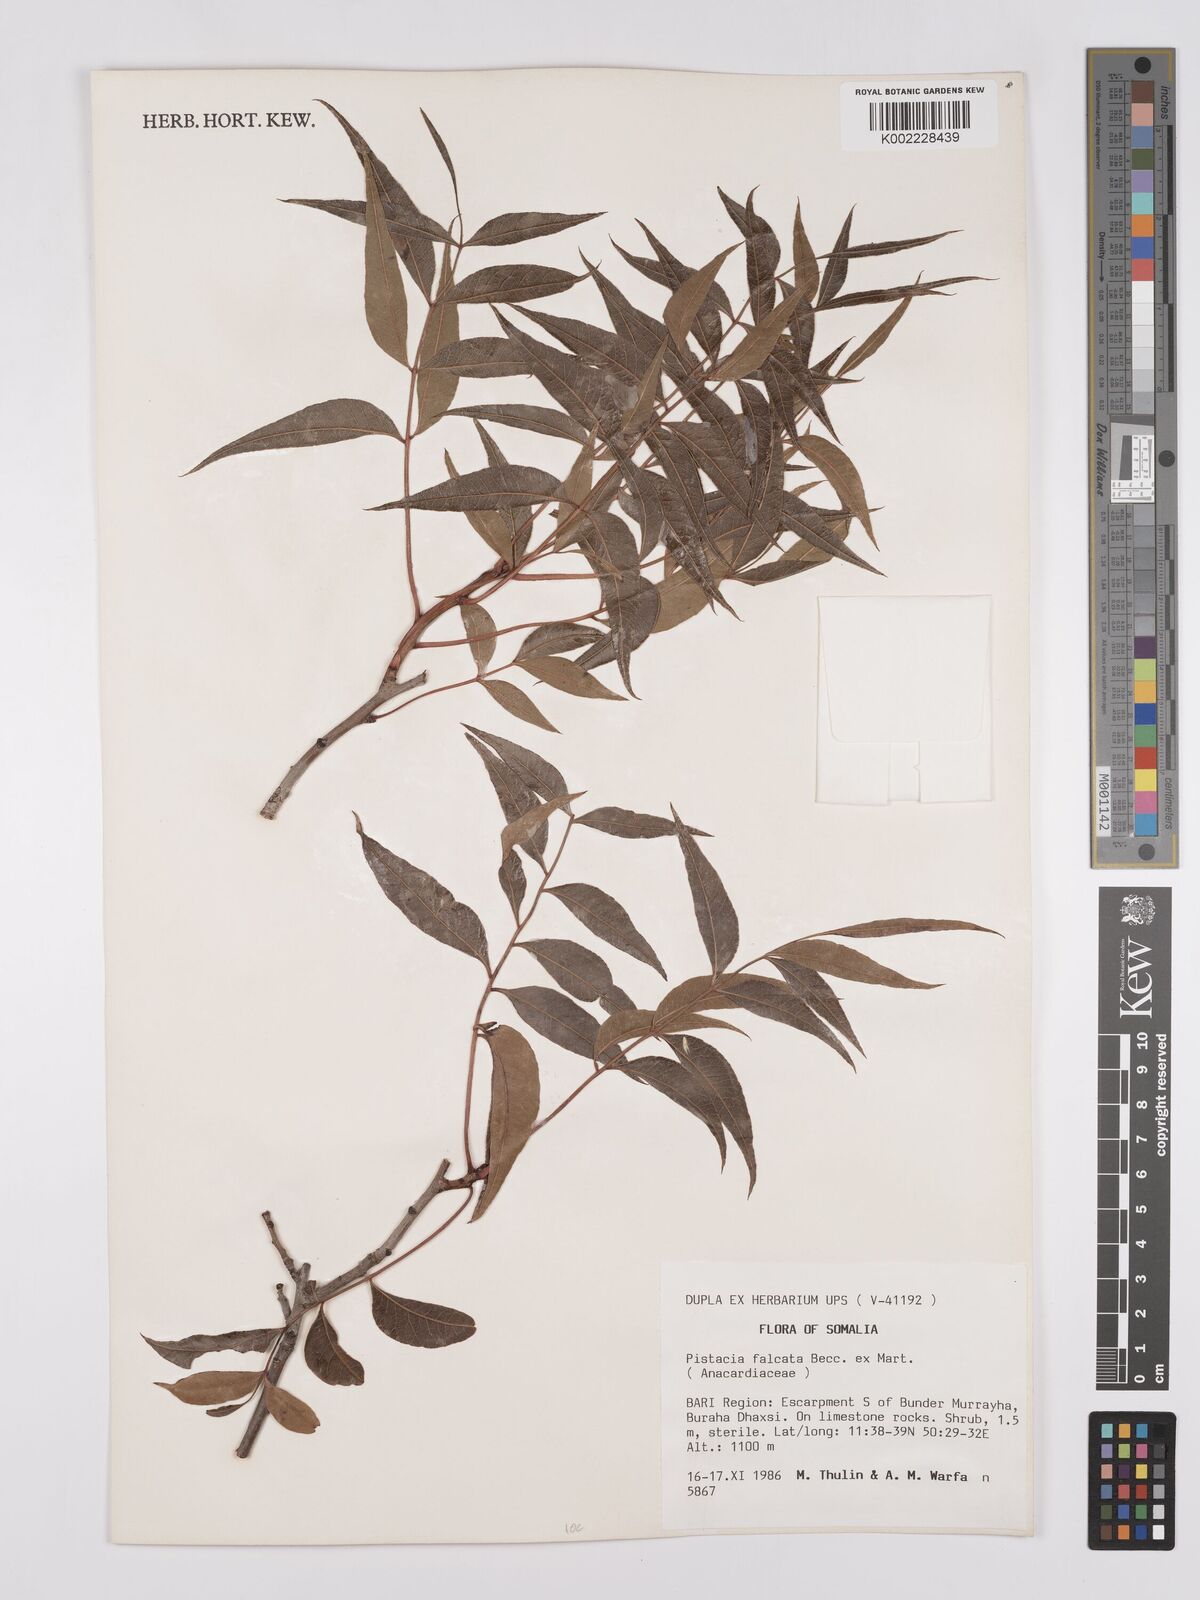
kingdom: Plantae
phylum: Tracheophyta
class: Magnoliopsida
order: Sapindales
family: Anacardiaceae
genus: Pistacia
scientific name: Pistacia falcata
